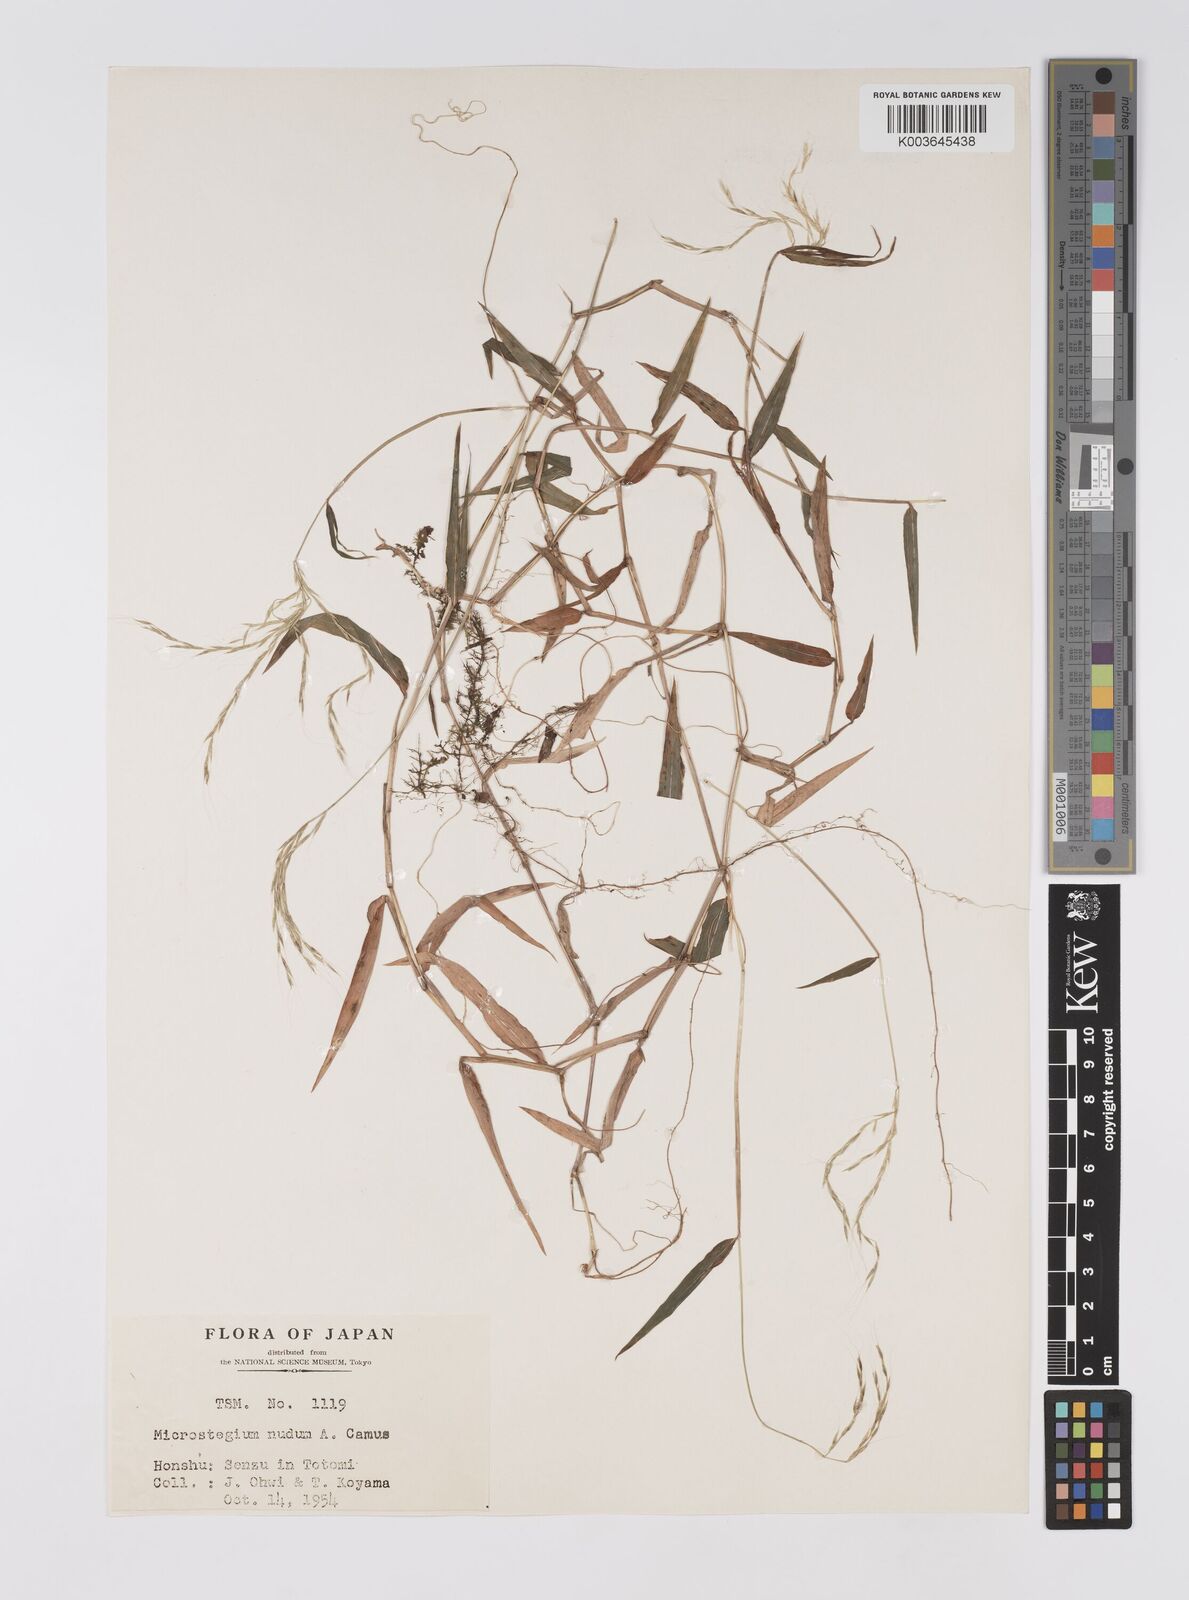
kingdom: Plantae
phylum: Tracheophyta
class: Liliopsida
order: Poales
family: Poaceae
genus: Microstegium
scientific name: Microstegium nudum
